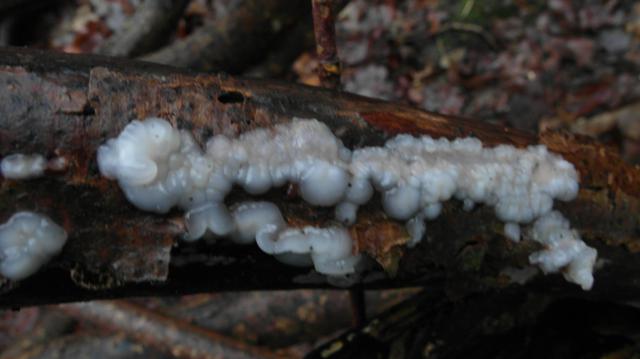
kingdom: Fungi
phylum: Basidiomycota
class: Agaricomycetes
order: Auriculariales
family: Auriculariaceae
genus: Exidia
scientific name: Exidia thuretiana
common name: hvidlig bævretop
